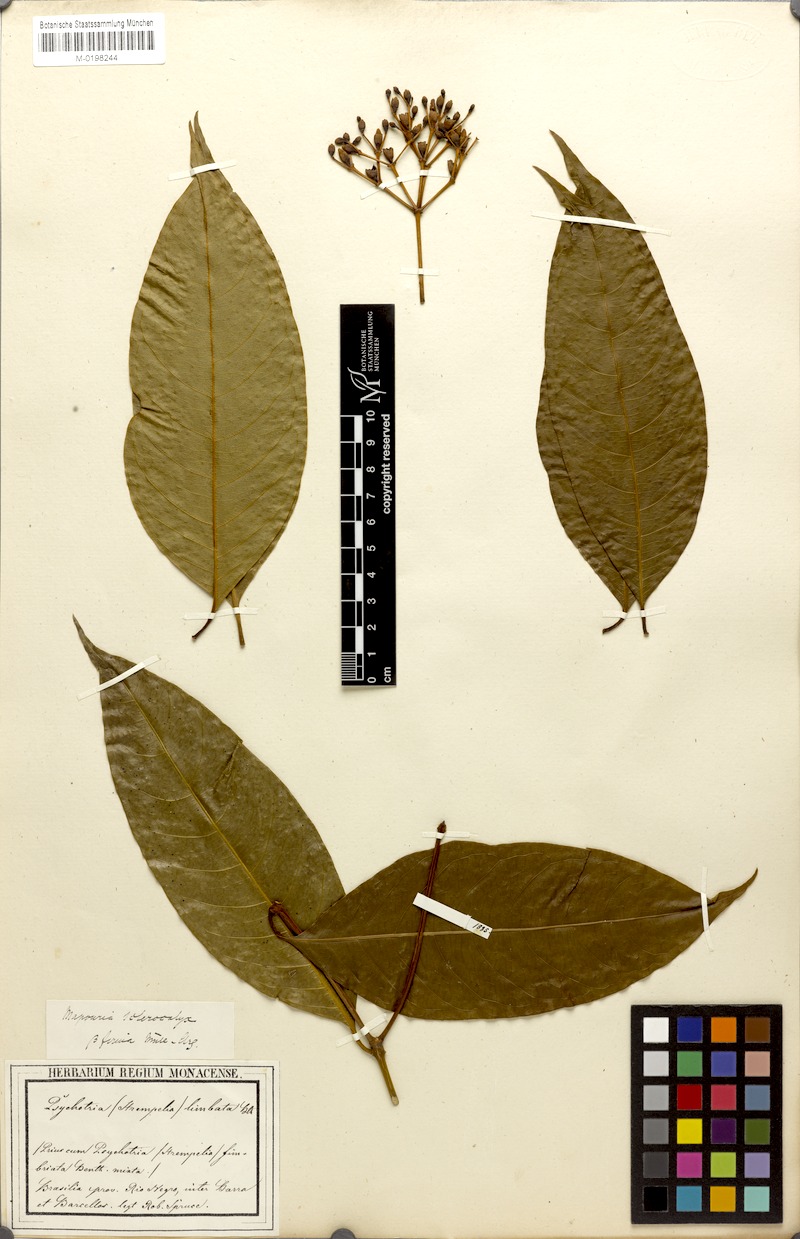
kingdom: Plantae
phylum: Tracheophyta
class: Magnoliopsida
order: Gentianales
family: Rubiaceae
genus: Rudgea
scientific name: Rudgea sclerocalyx
